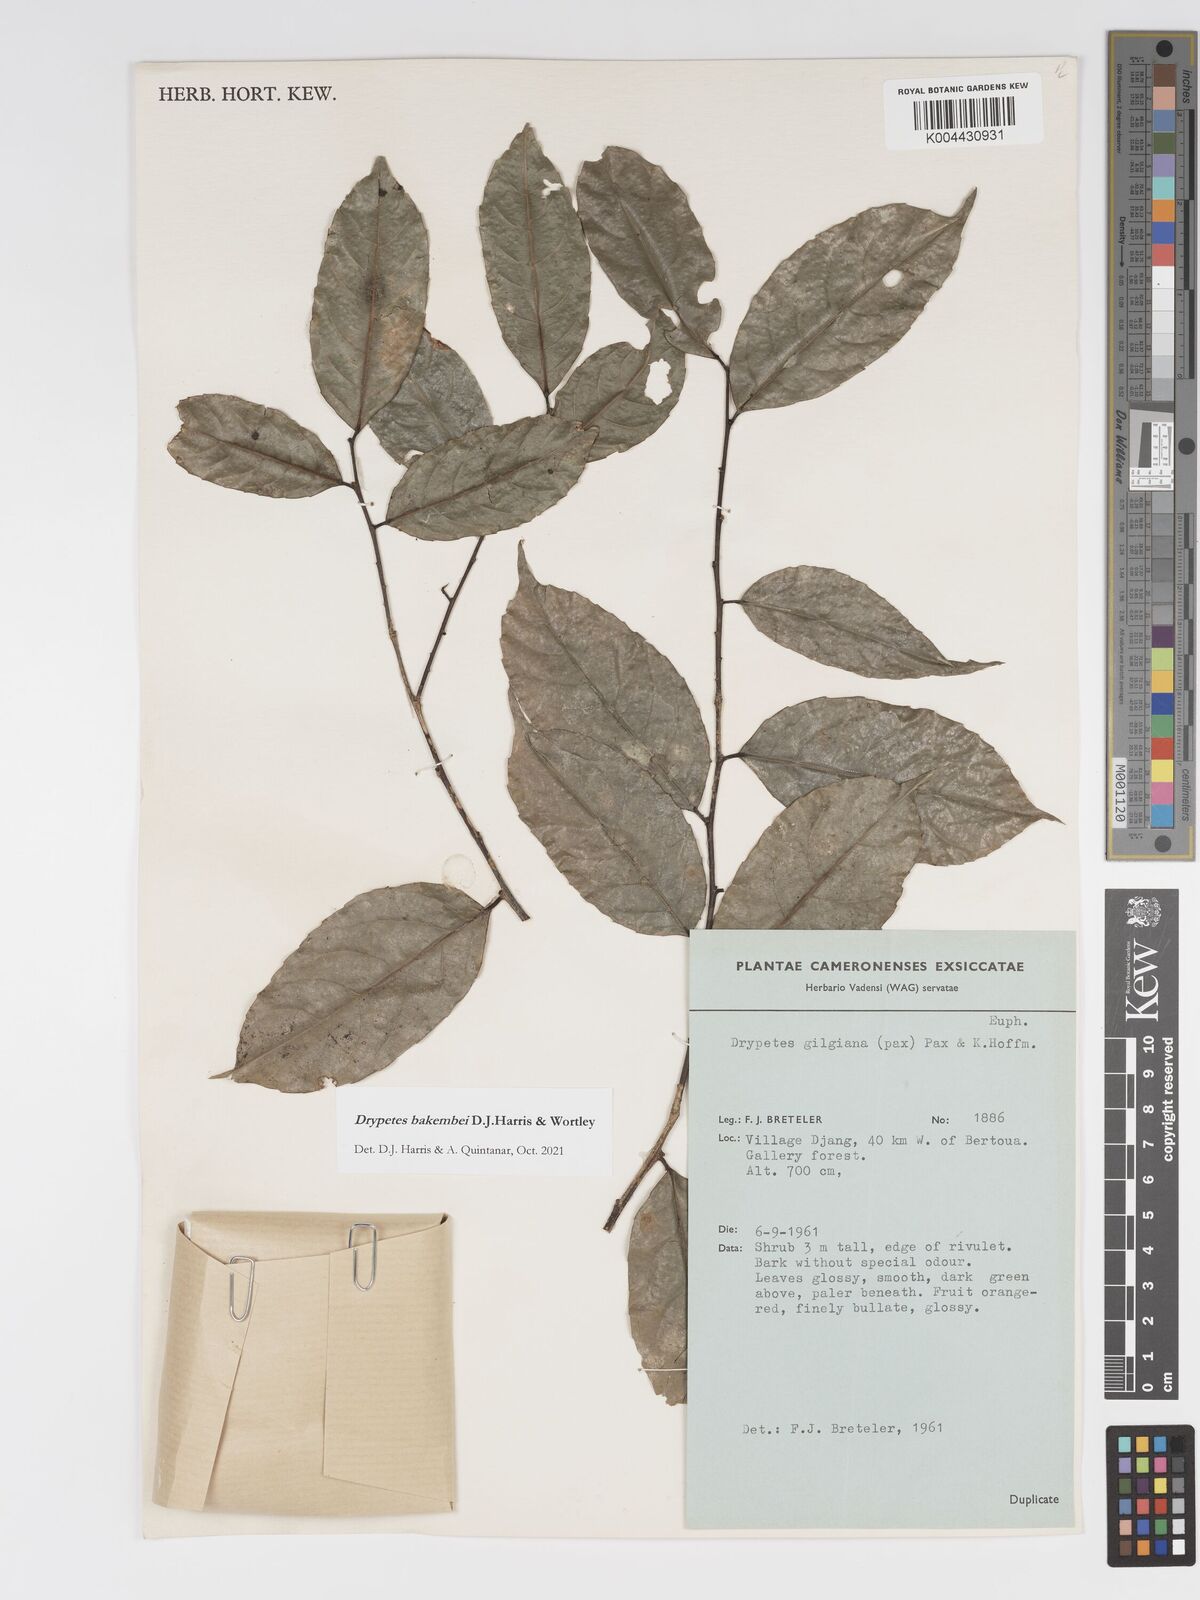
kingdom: Plantae
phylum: Tracheophyta
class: Magnoliopsida
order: Malpighiales
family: Putranjivaceae
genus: Drypetes
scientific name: Drypetes bakembei
